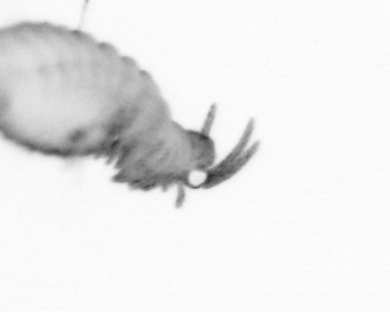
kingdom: Animalia
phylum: Annelida
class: Polychaeta
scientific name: Polychaeta
